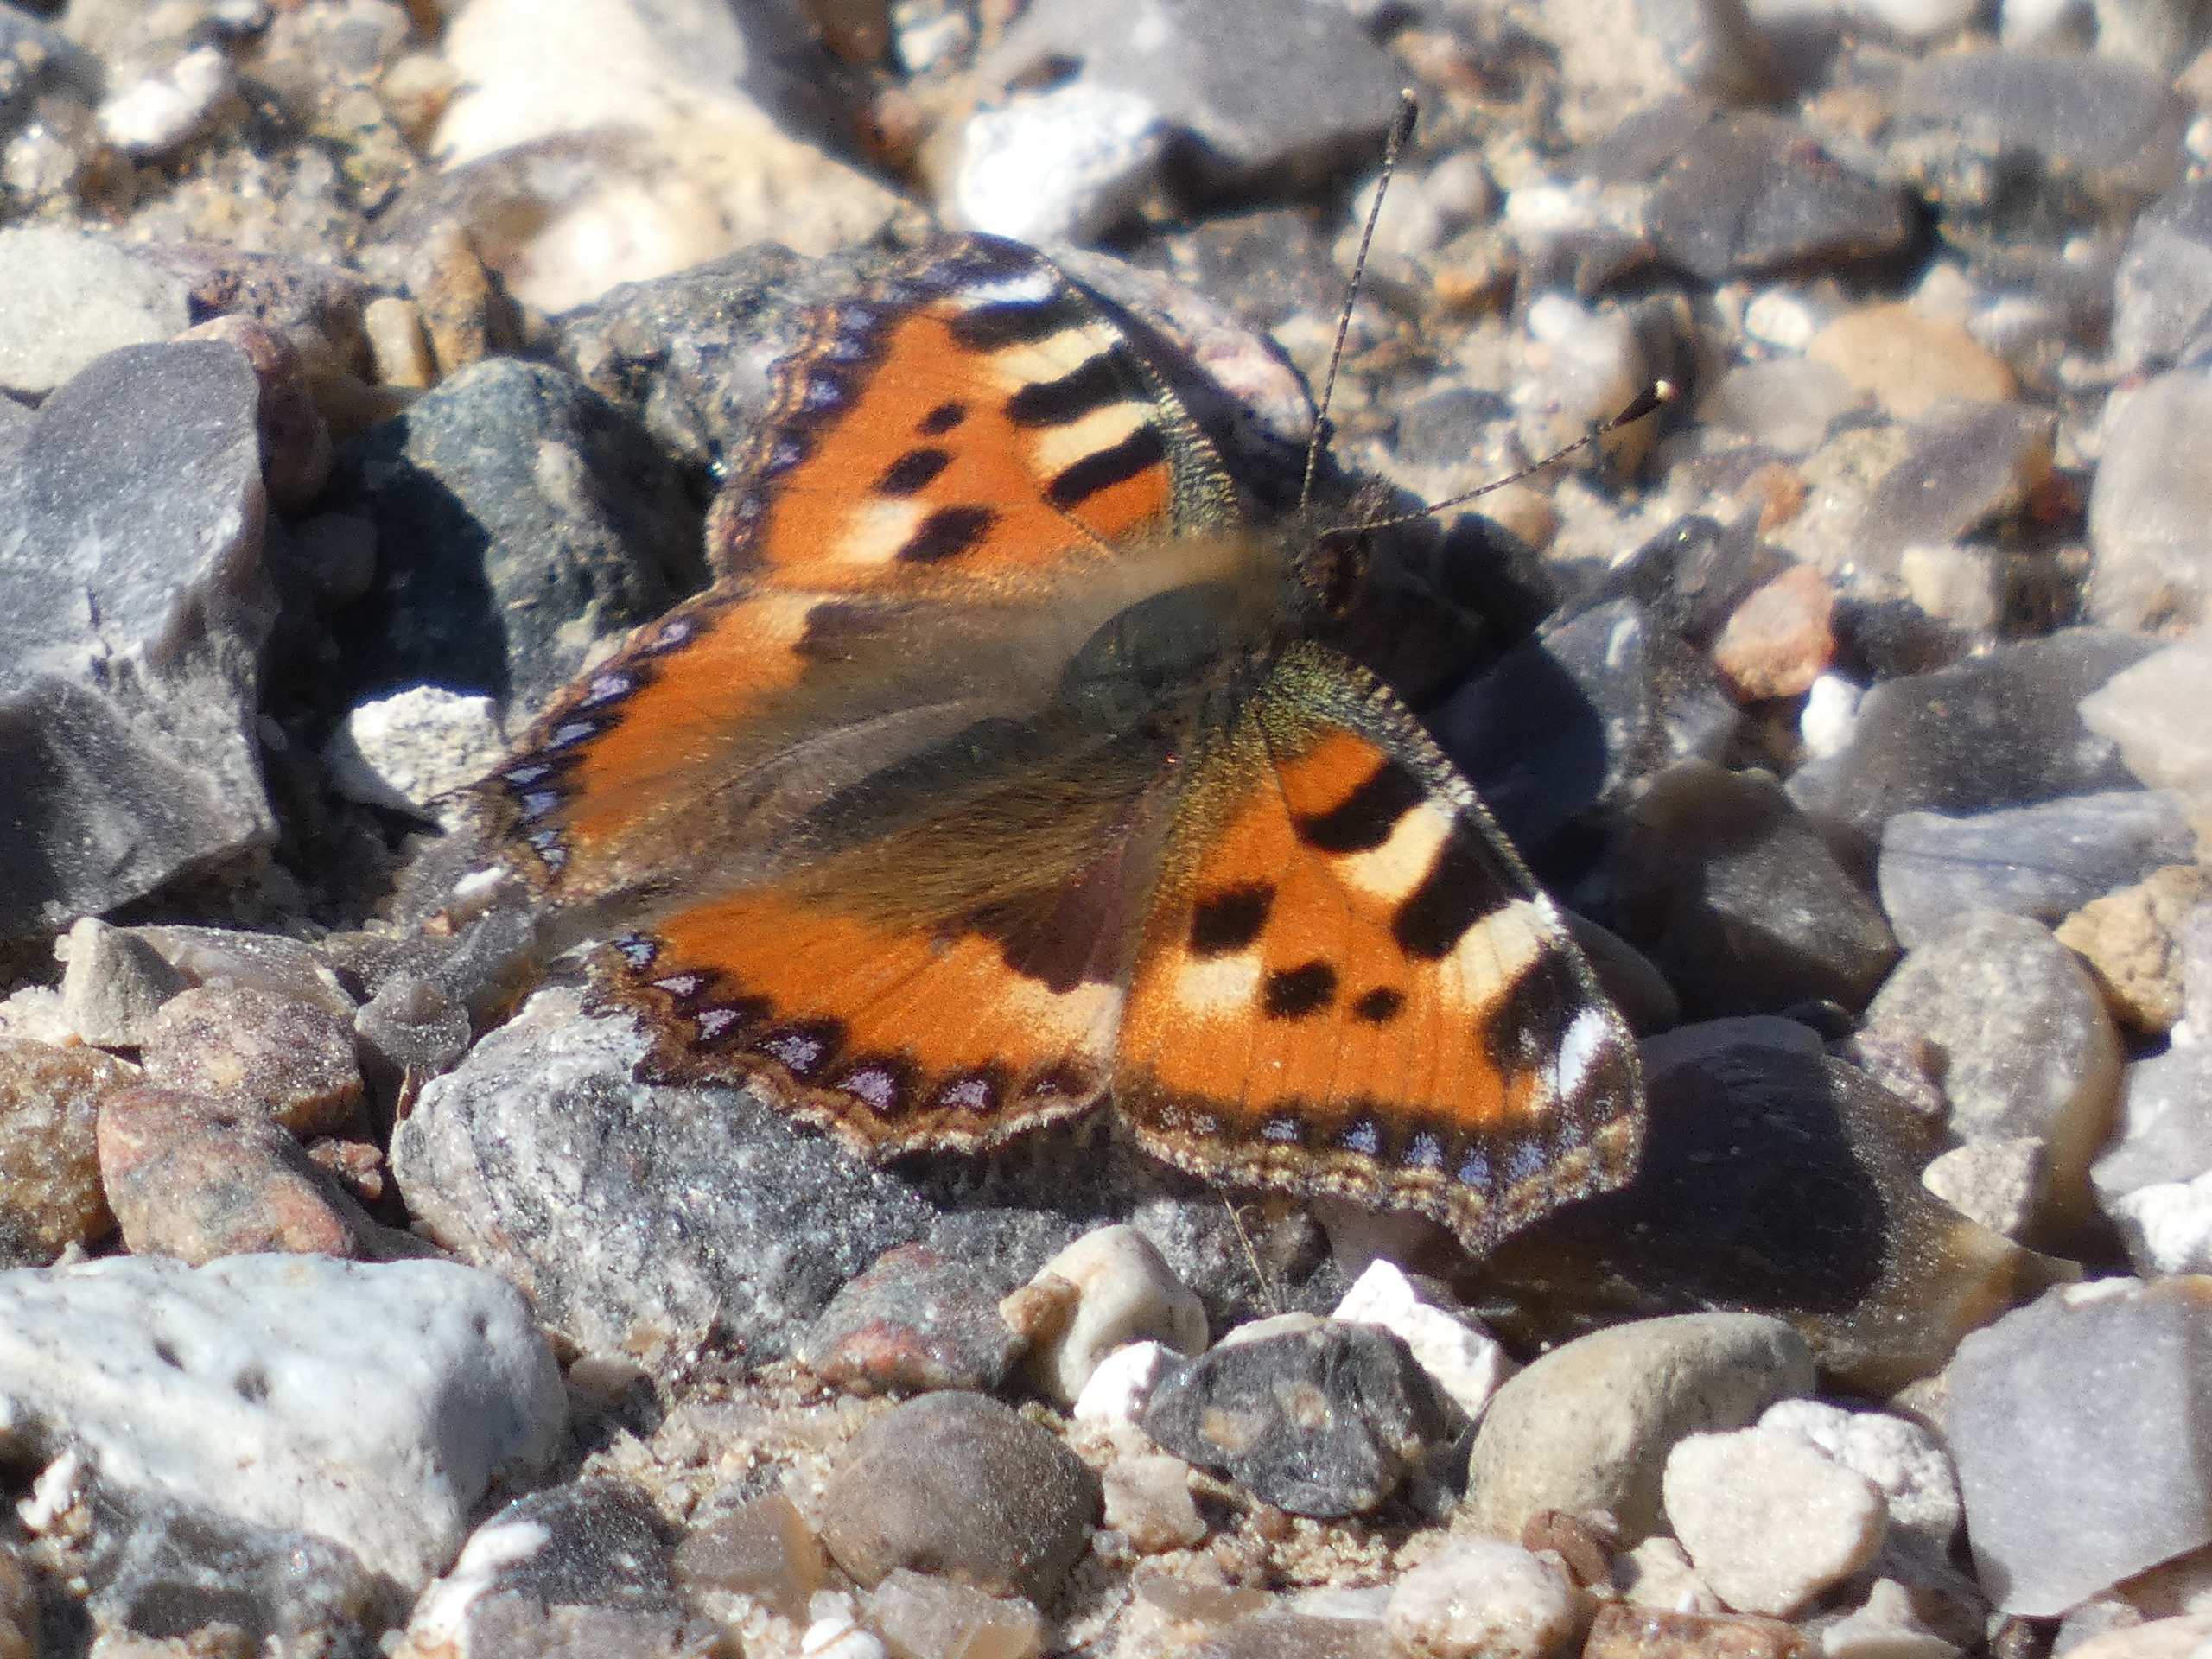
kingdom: Animalia
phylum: Arthropoda
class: Insecta
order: Lepidoptera
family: Nymphalidae
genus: Aglais
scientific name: Aglais urticae
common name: Nældens takvinge
